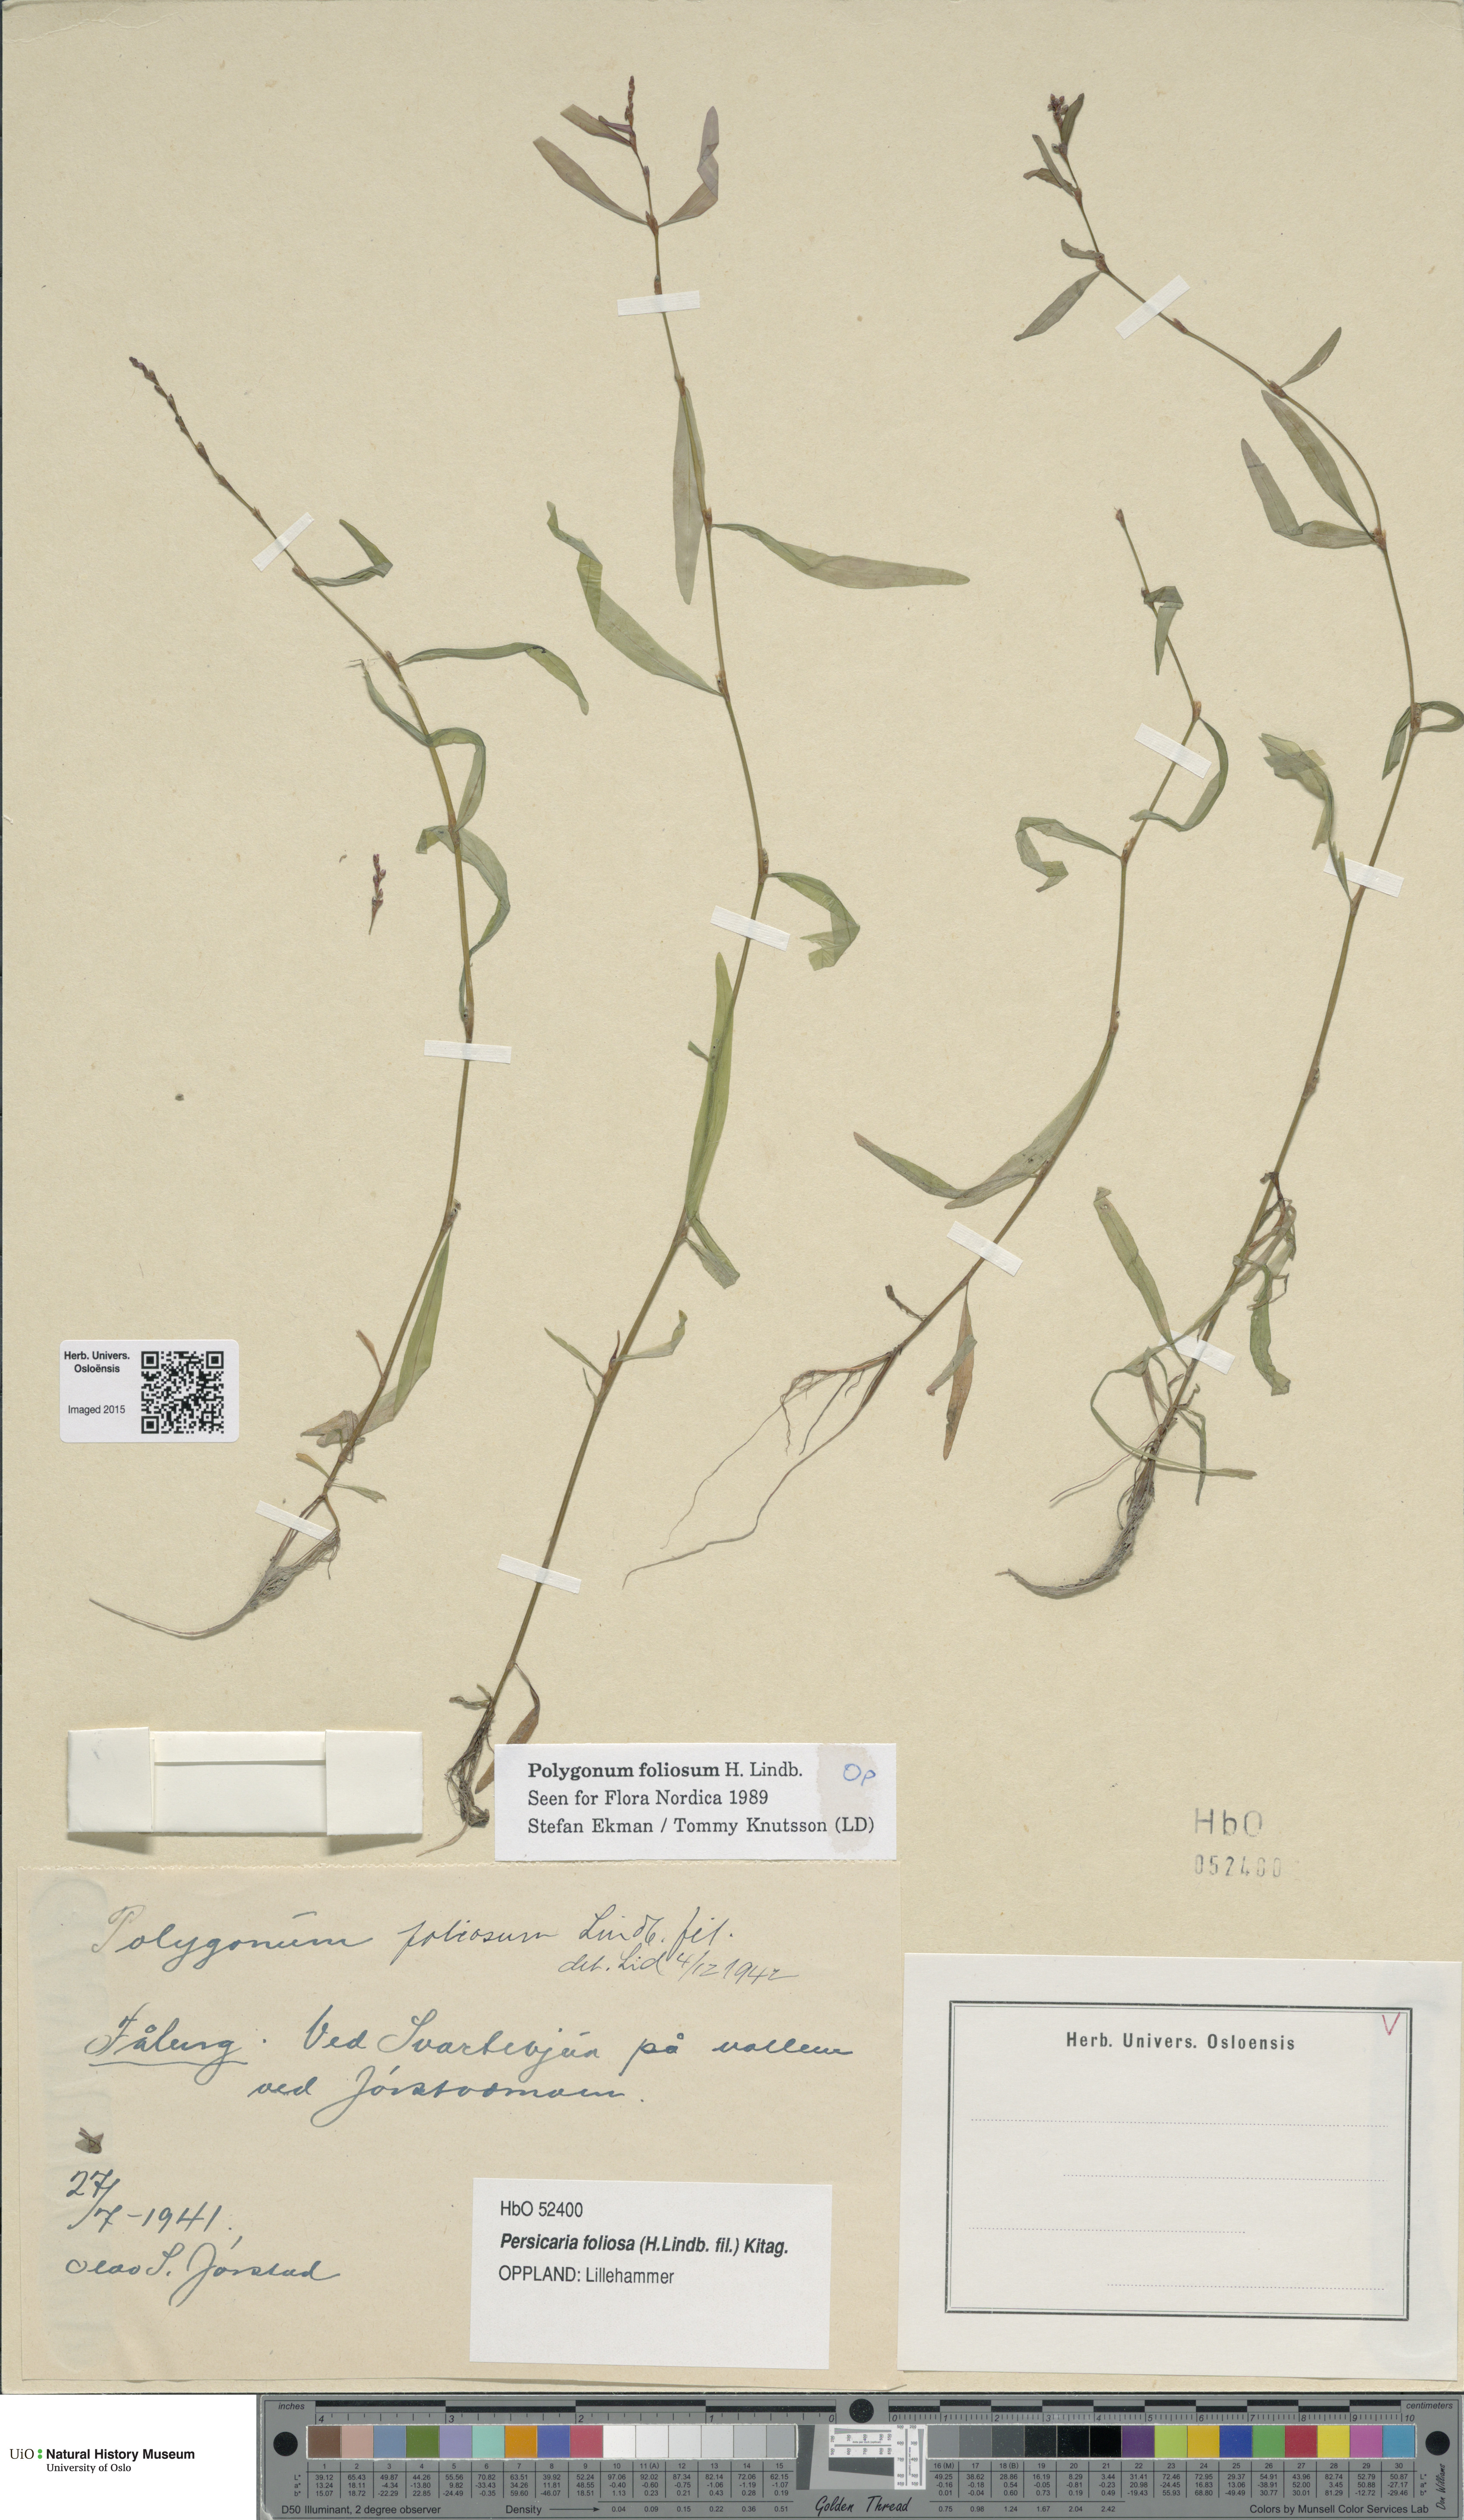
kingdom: Plantae
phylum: Tracheophyta
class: Magnoliopsida
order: Caryophyllales
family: Polygonaceae
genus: Persicaria
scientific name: Persicaria foliosa
